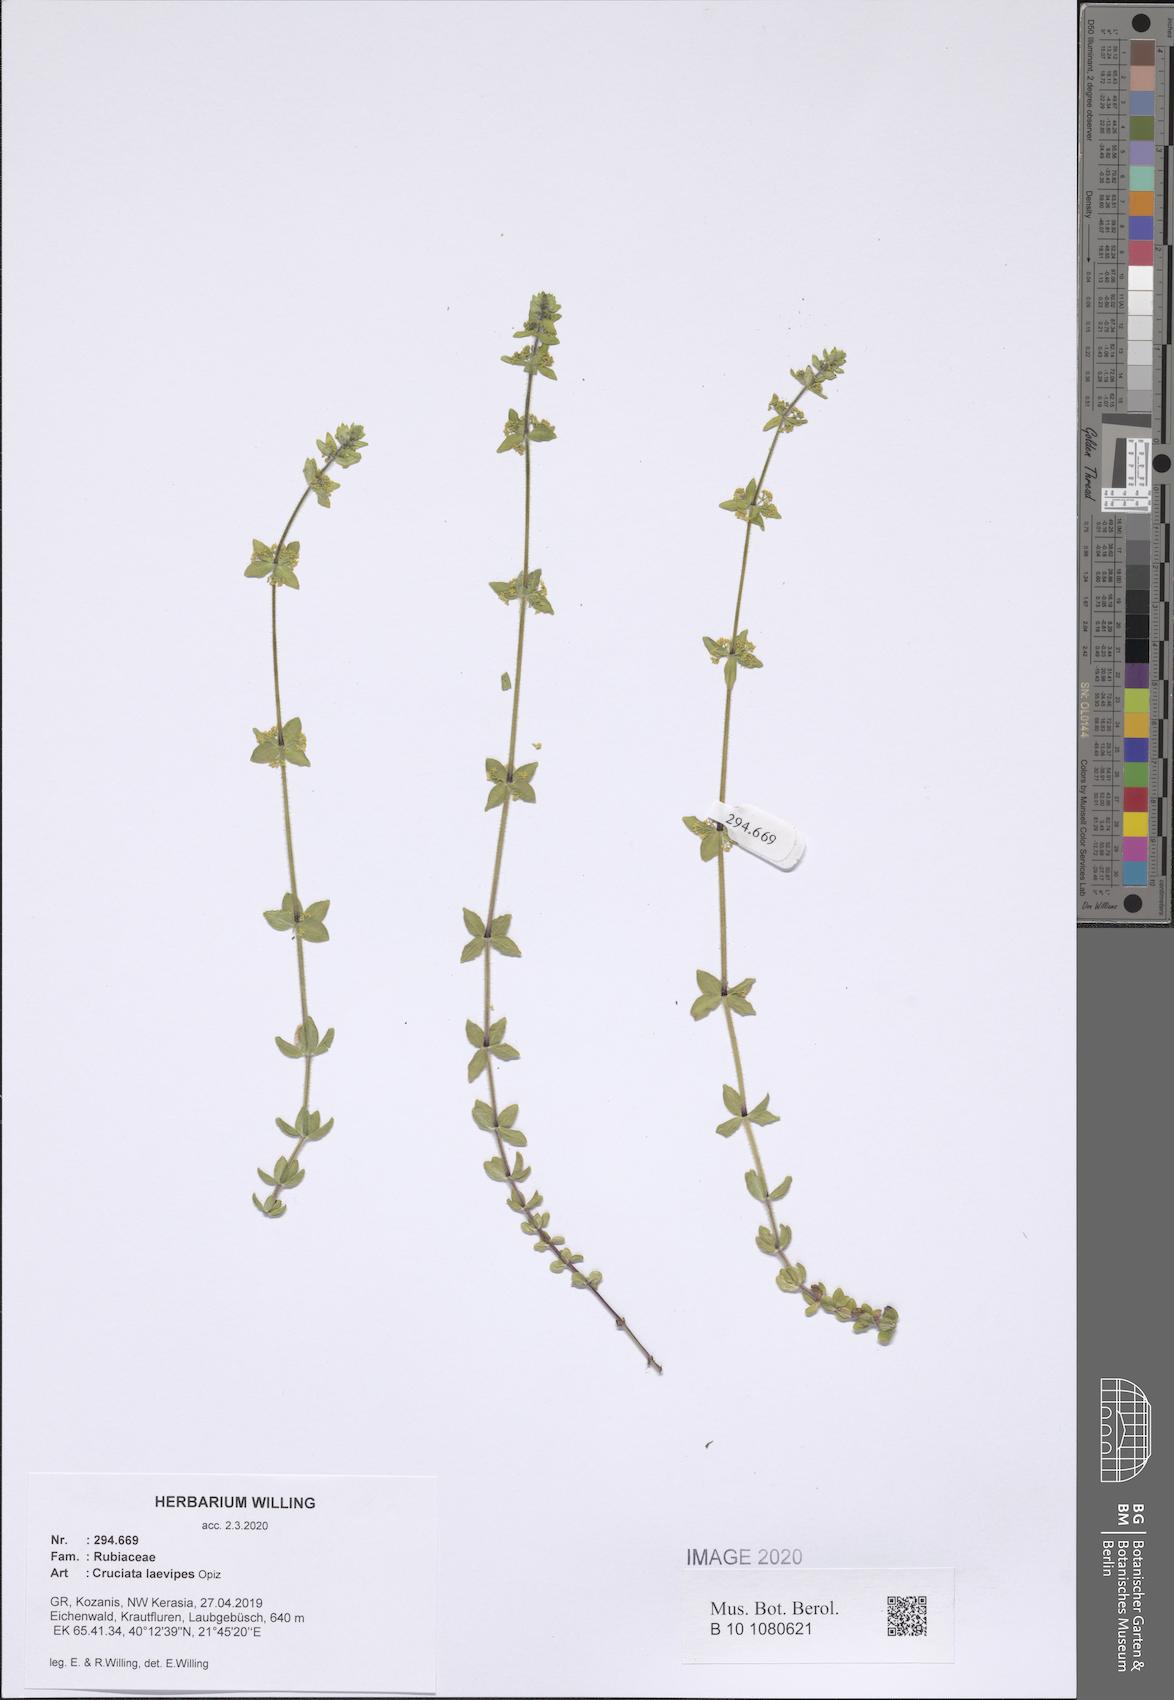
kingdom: Plantae
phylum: Tracheophyta
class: Magnoliopsida
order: Gentianales
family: Rubiaceae
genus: Cruciata
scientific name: Cruciata laevipes
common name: Crosswort
